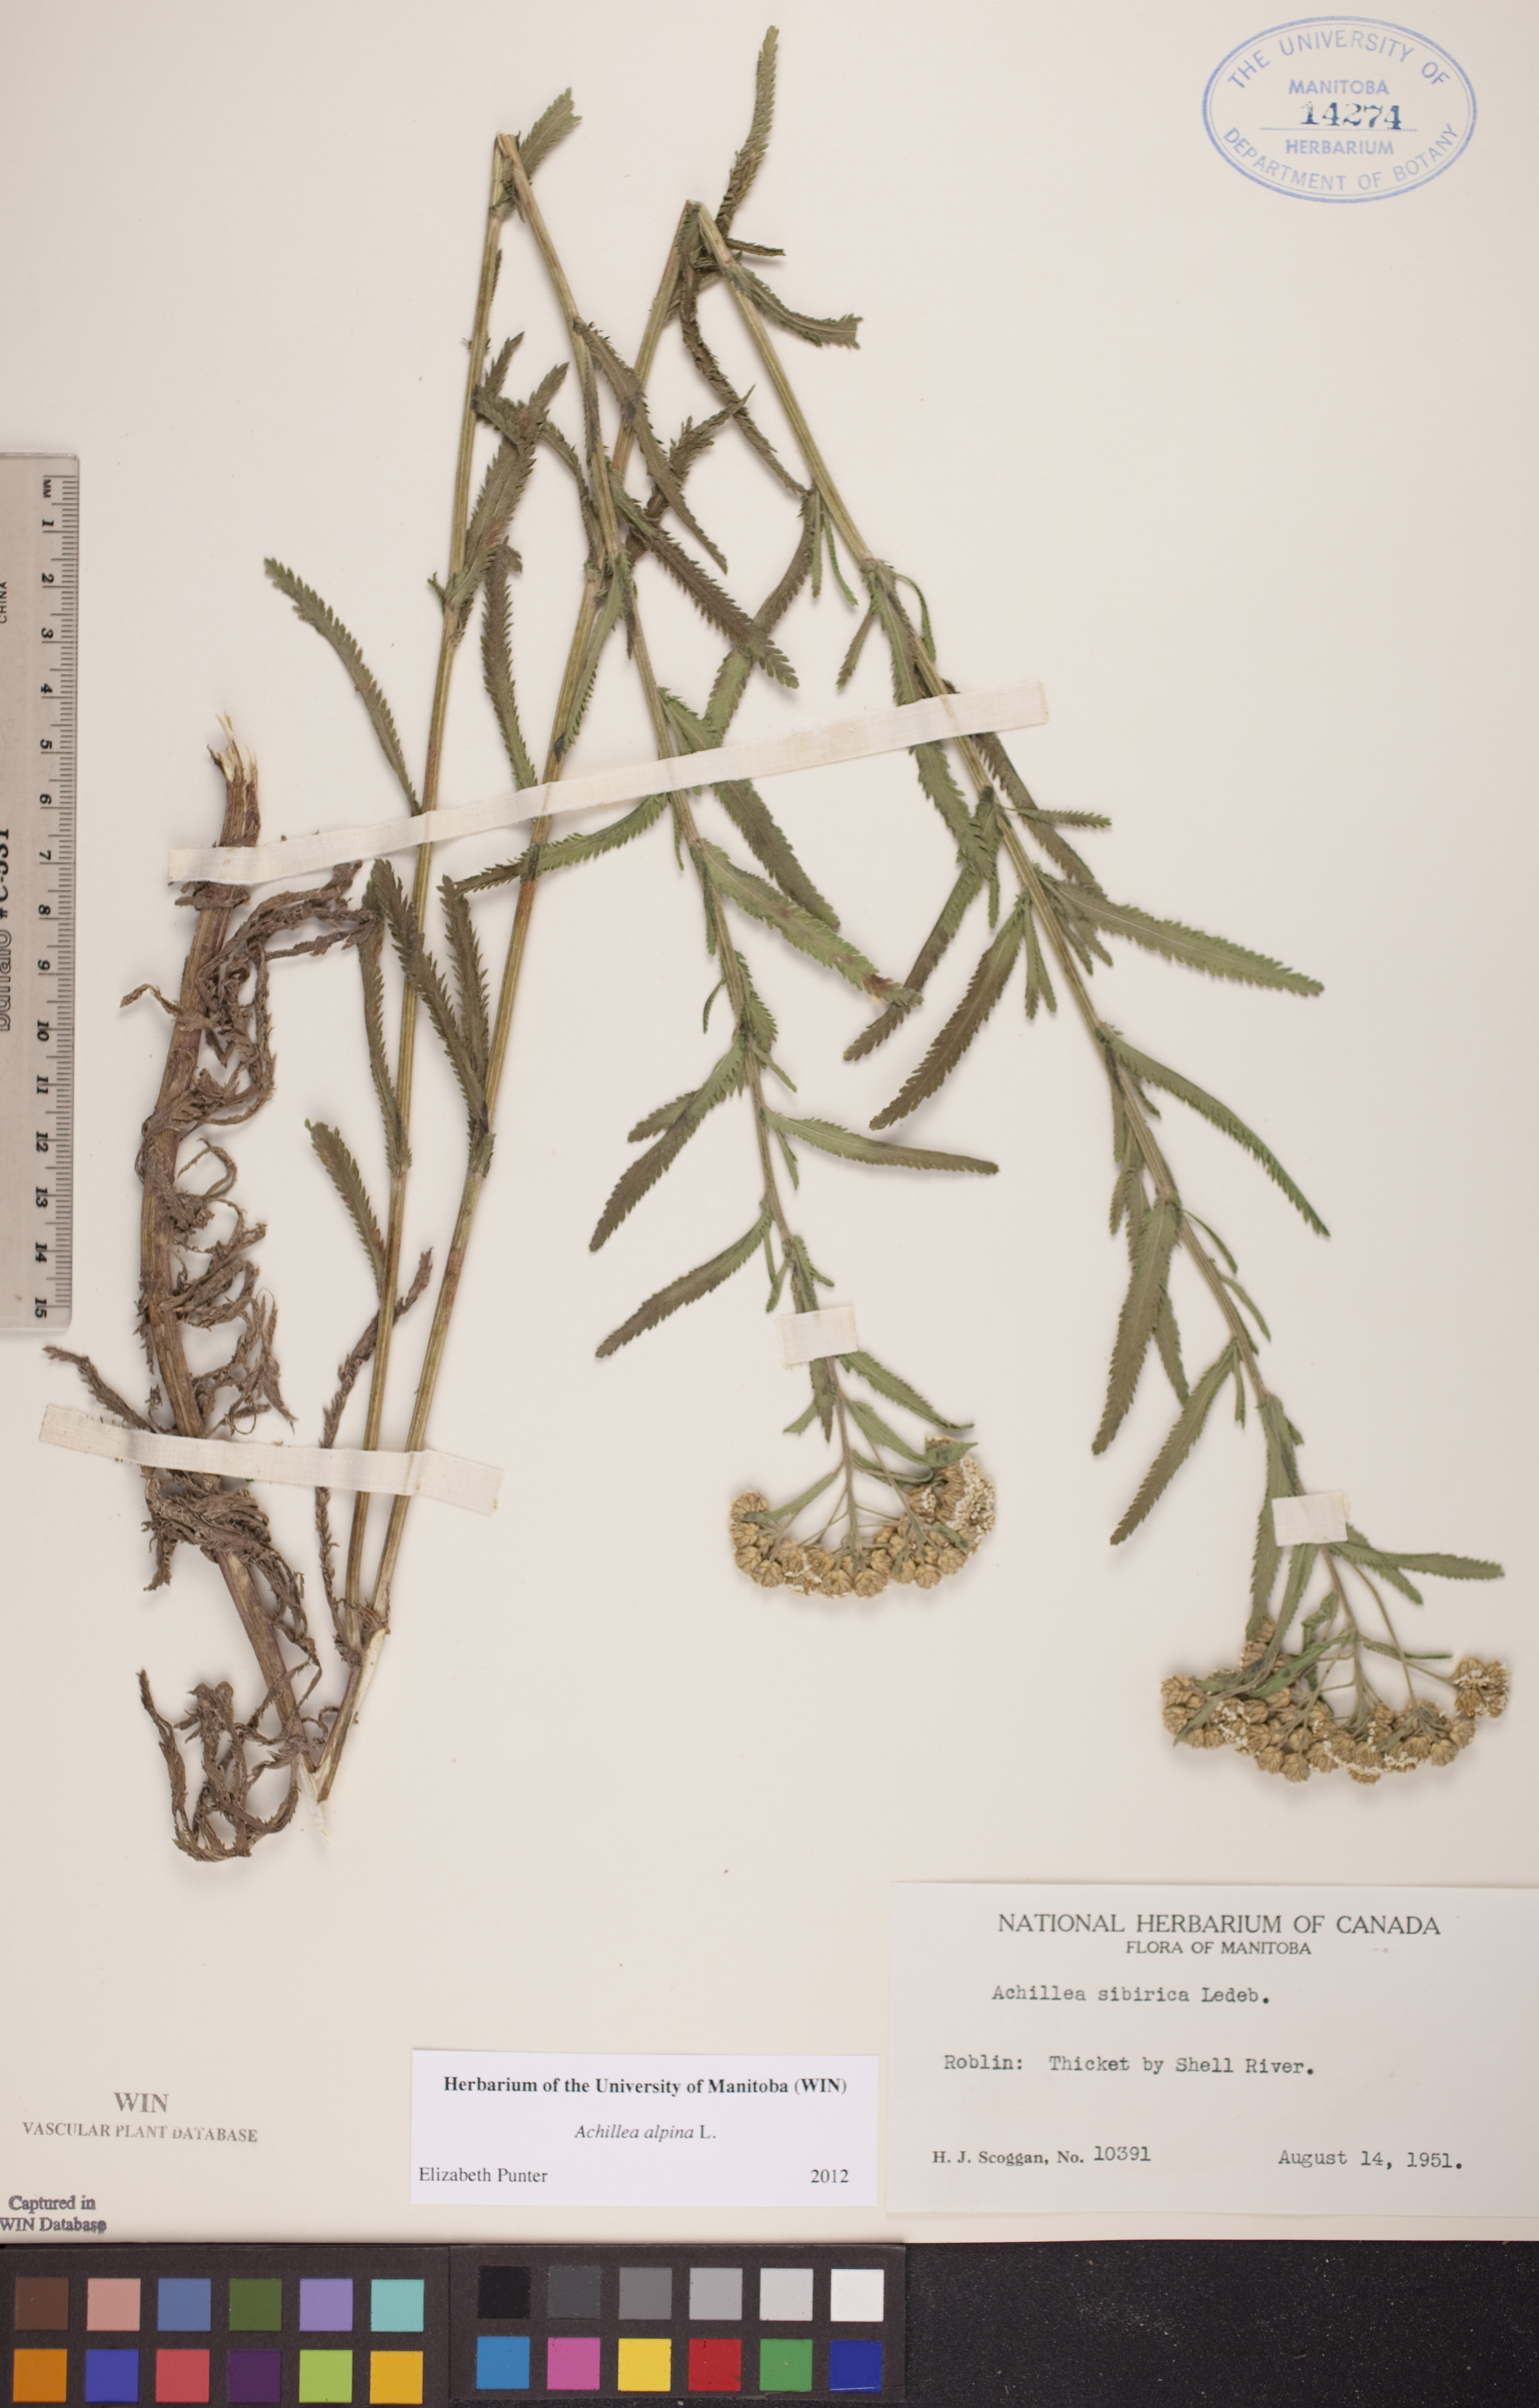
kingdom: Plantae
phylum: Tracheophyta
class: Magnoliopsida
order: Asterales
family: Asteraceae
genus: Achillea
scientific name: Achillea alpina
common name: Siberian yarrow
